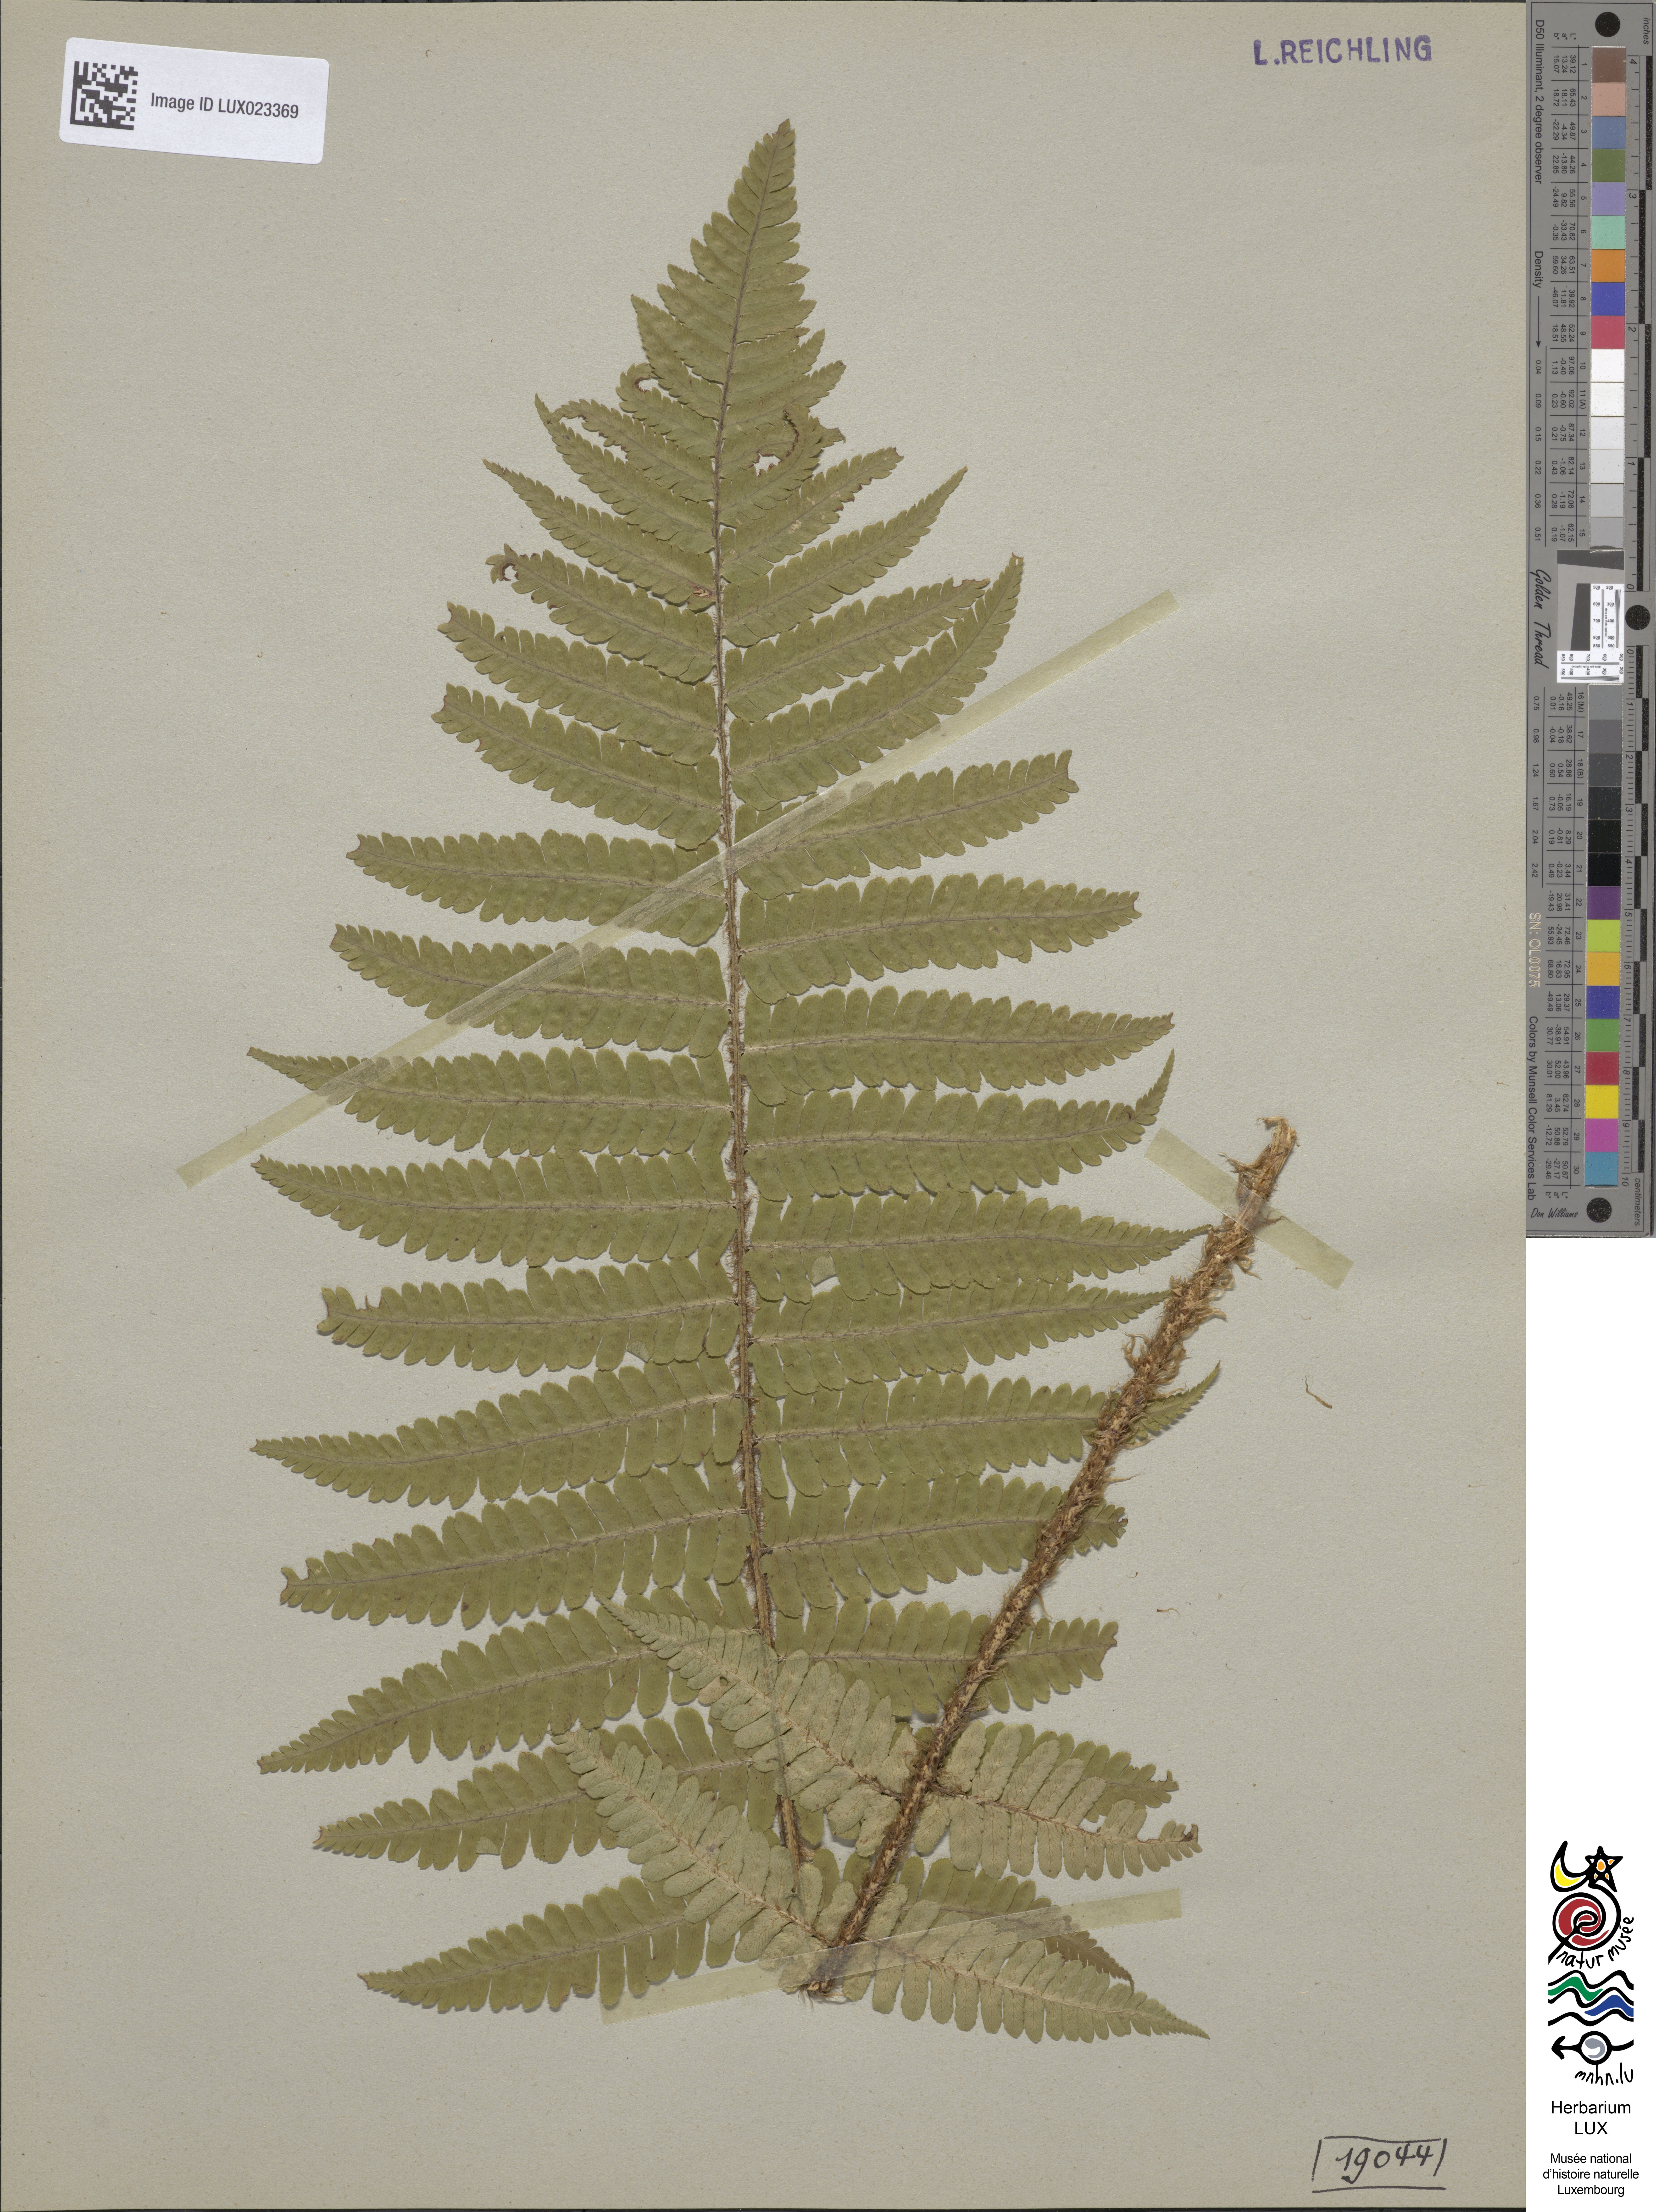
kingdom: Plantae
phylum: Tracheophyta
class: Polypodiopsida
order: Polypodiales
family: Dryopteridaceae
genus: Dryopteris
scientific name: Dryopteris borreri
